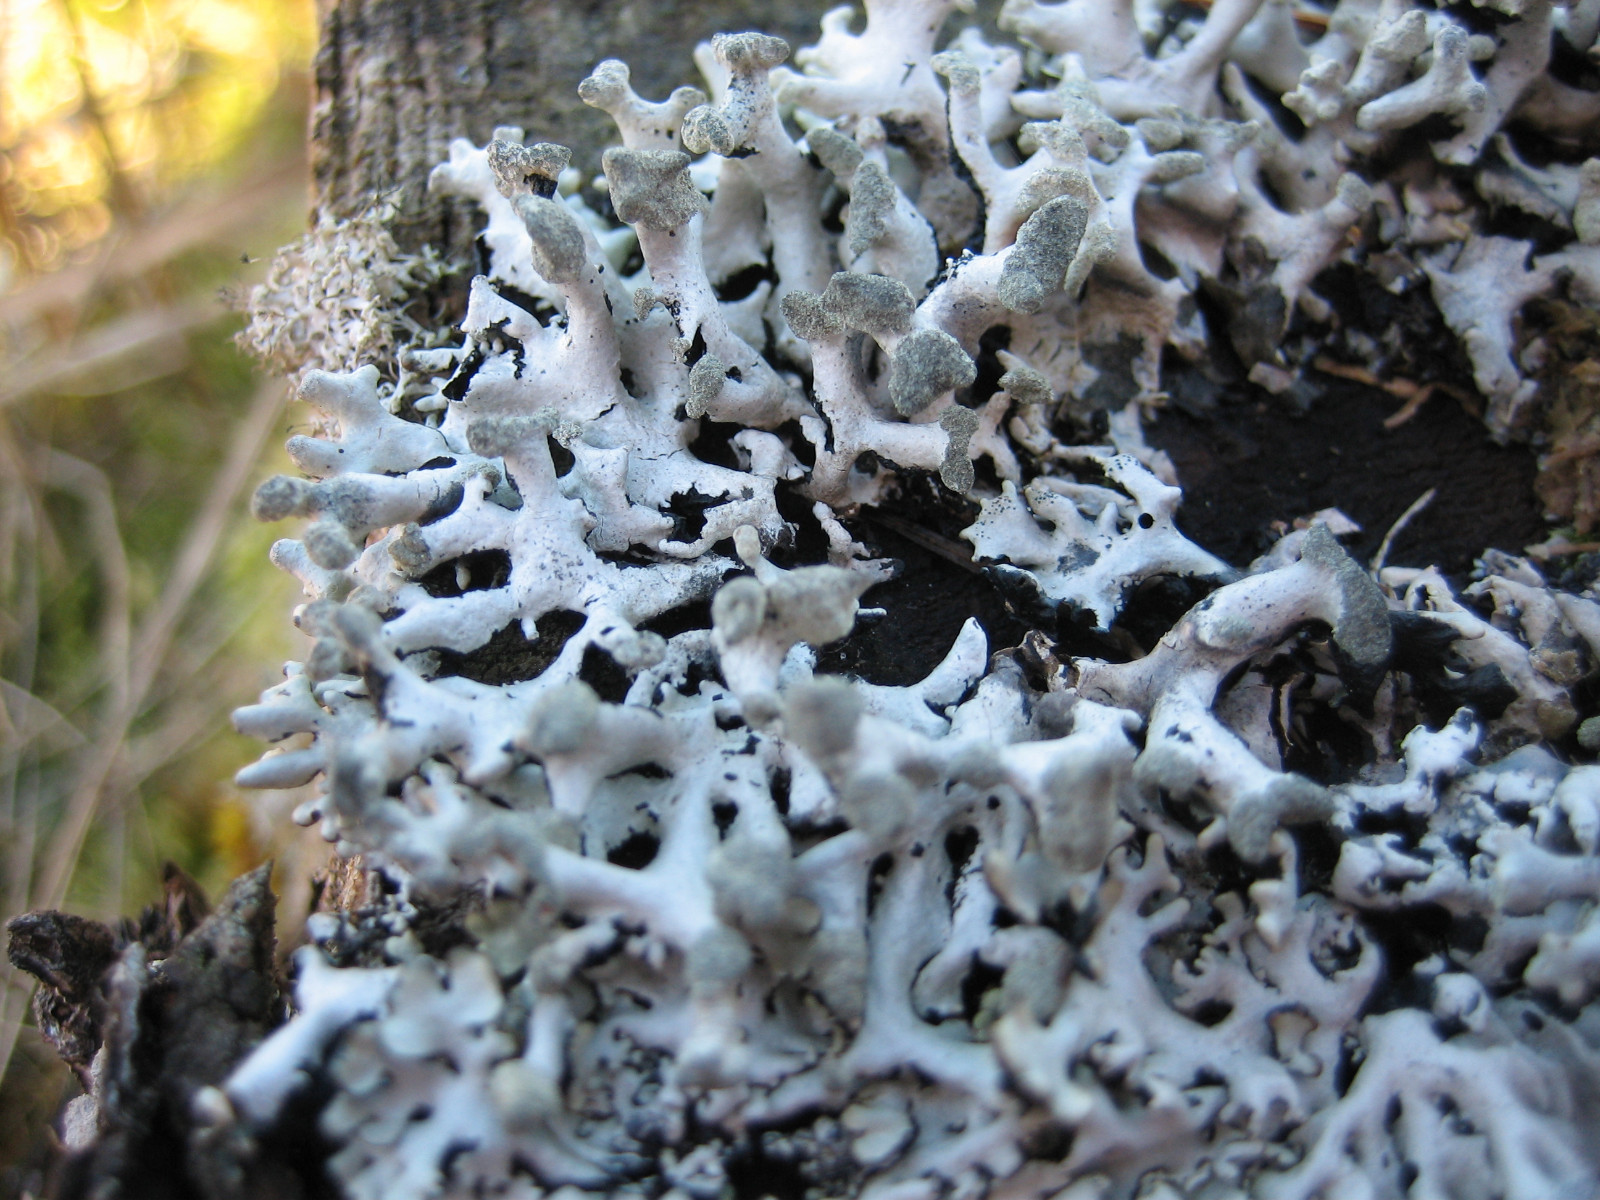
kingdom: Fungi
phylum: Ascomycota
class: Lecanoromycetes
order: Lecanorales
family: Parmeliaceae
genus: Hypogymnia
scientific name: Hypogymnia tubulosa
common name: finger-kvistlav
